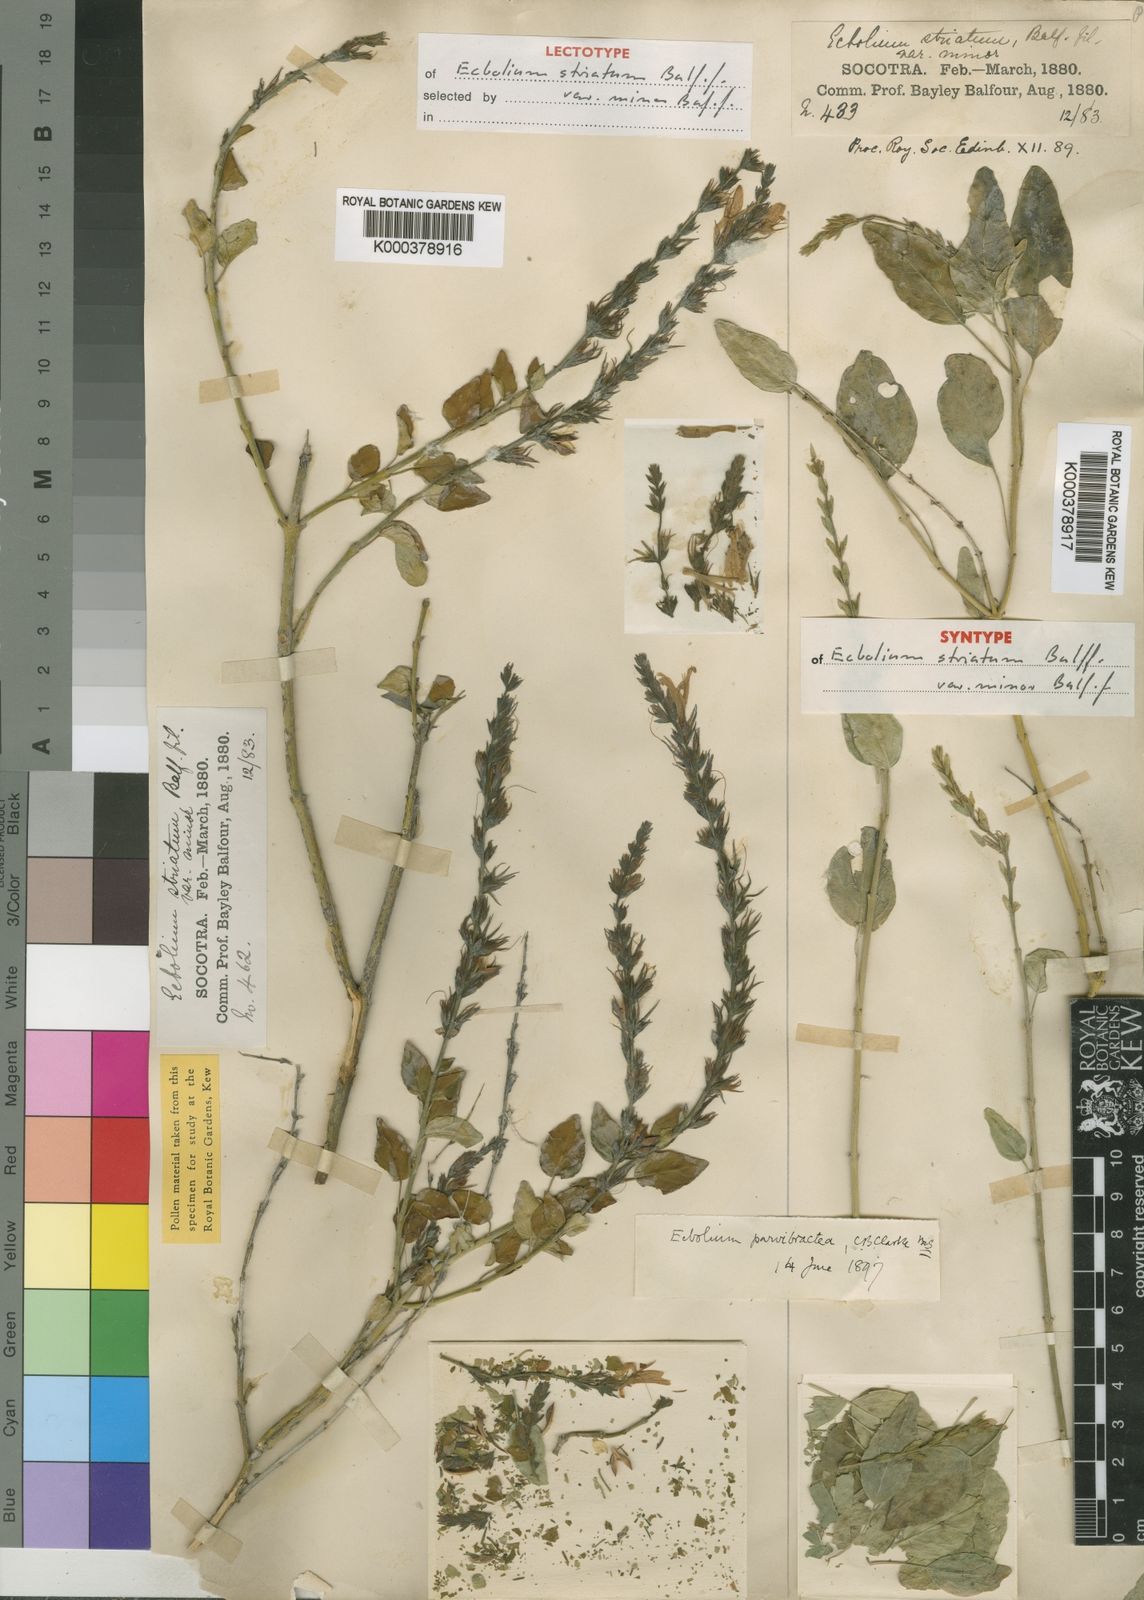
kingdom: Plantae
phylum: Tracheophyta
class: Magnoliopsida
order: Lamiales
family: Acanthaceae
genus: Chorisochora
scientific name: Chorisochora minor
